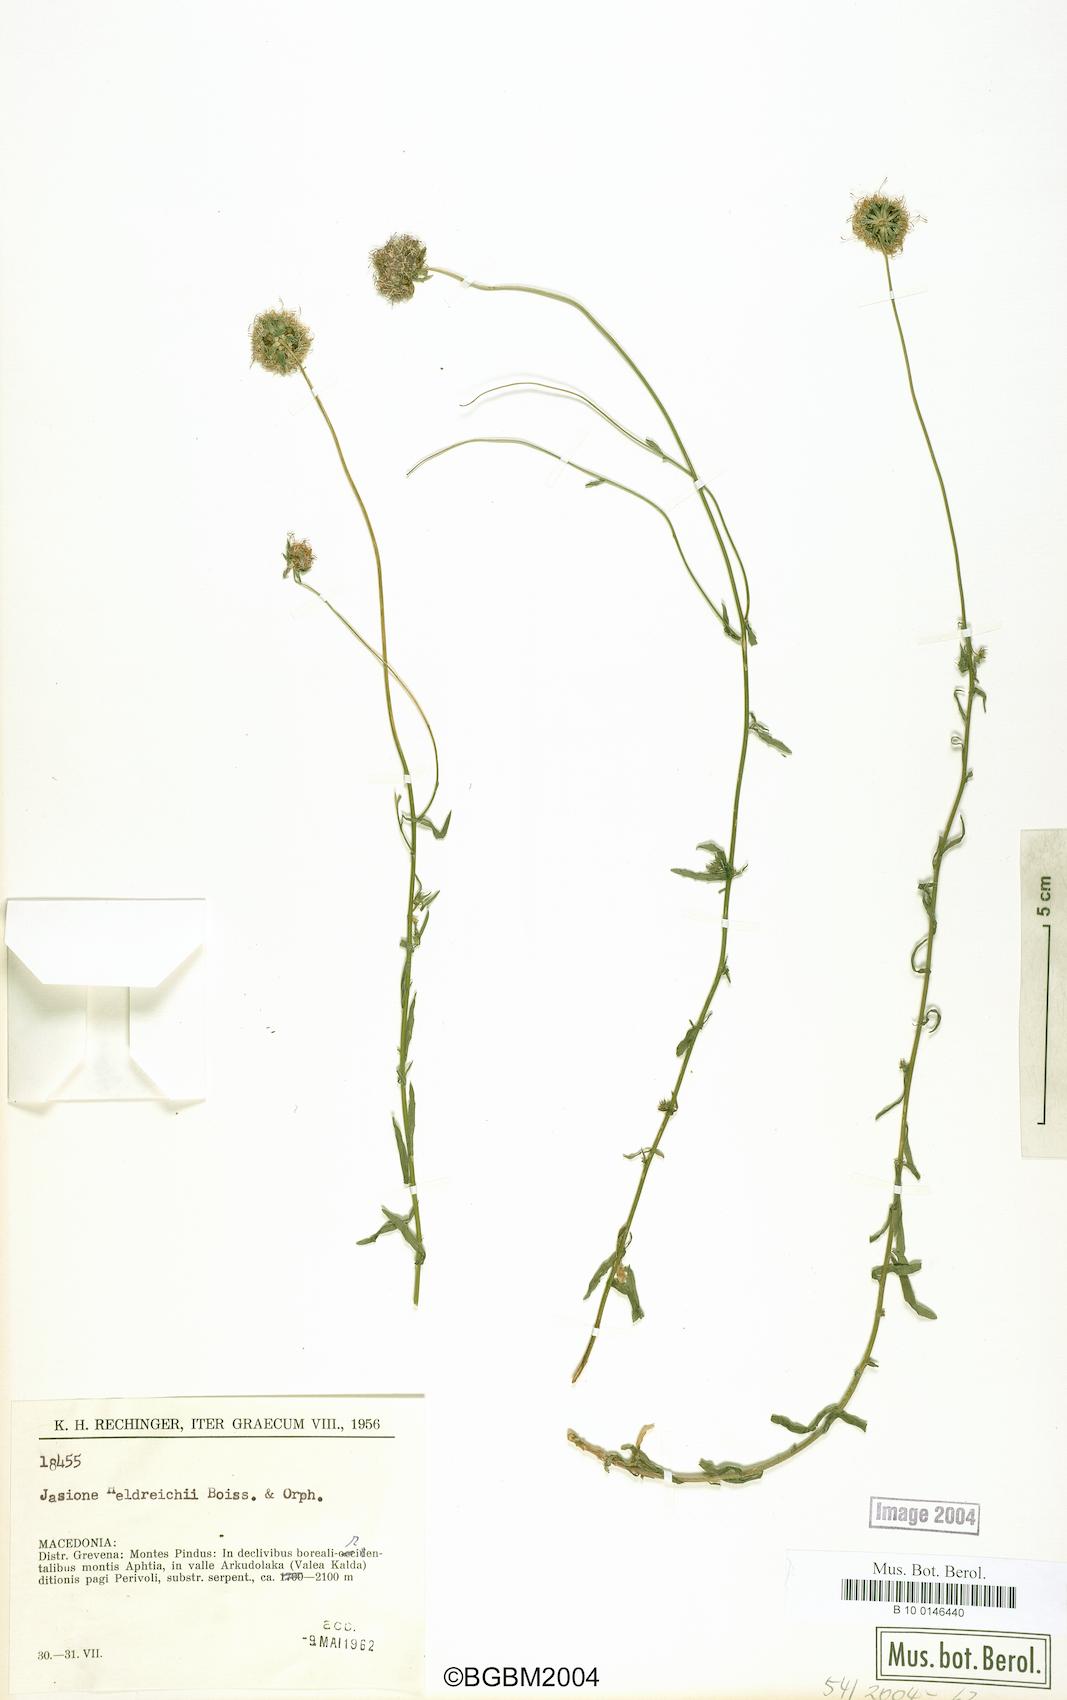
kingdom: Plantae
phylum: Tracheophyta
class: Magnoliopsida
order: Asterales
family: Campanulaceae
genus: Jasione
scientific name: Jasione heldreichii
